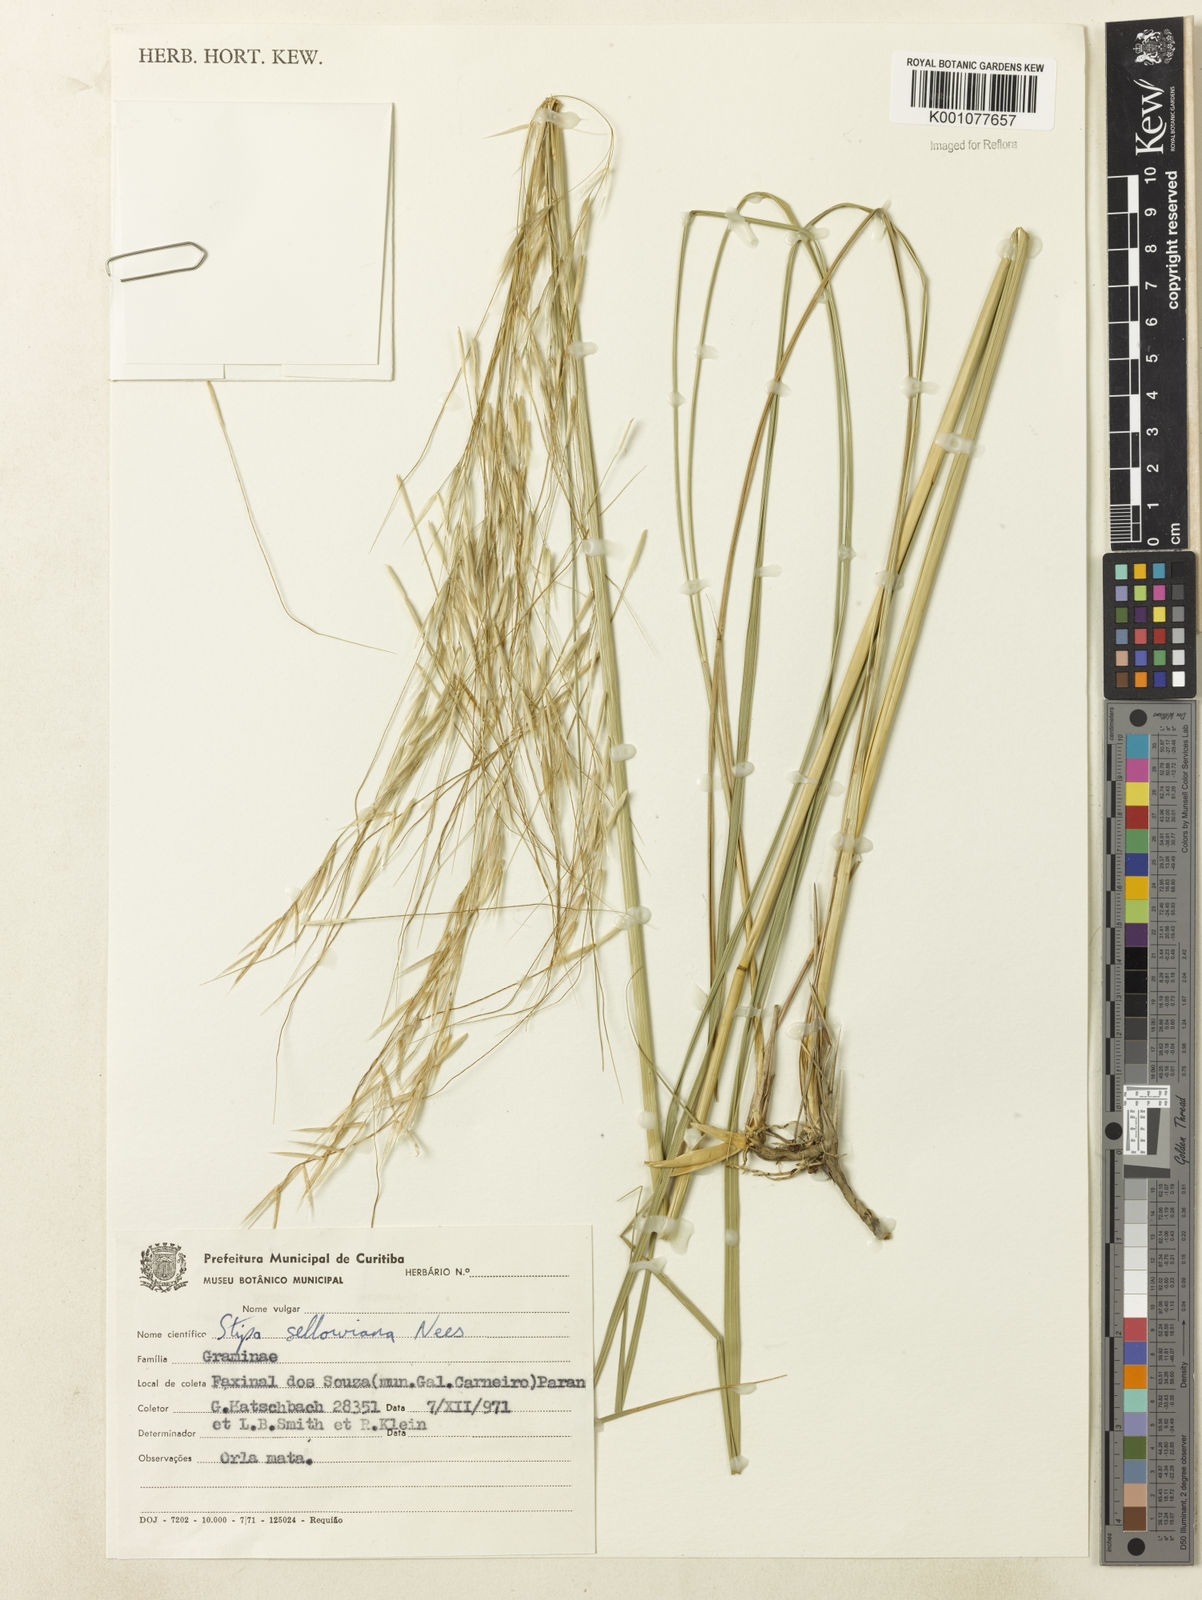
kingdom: Plantae
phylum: Tracheophyta
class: Liliopsida
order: Poales
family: Poaceae
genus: Nassella
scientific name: Nassella
